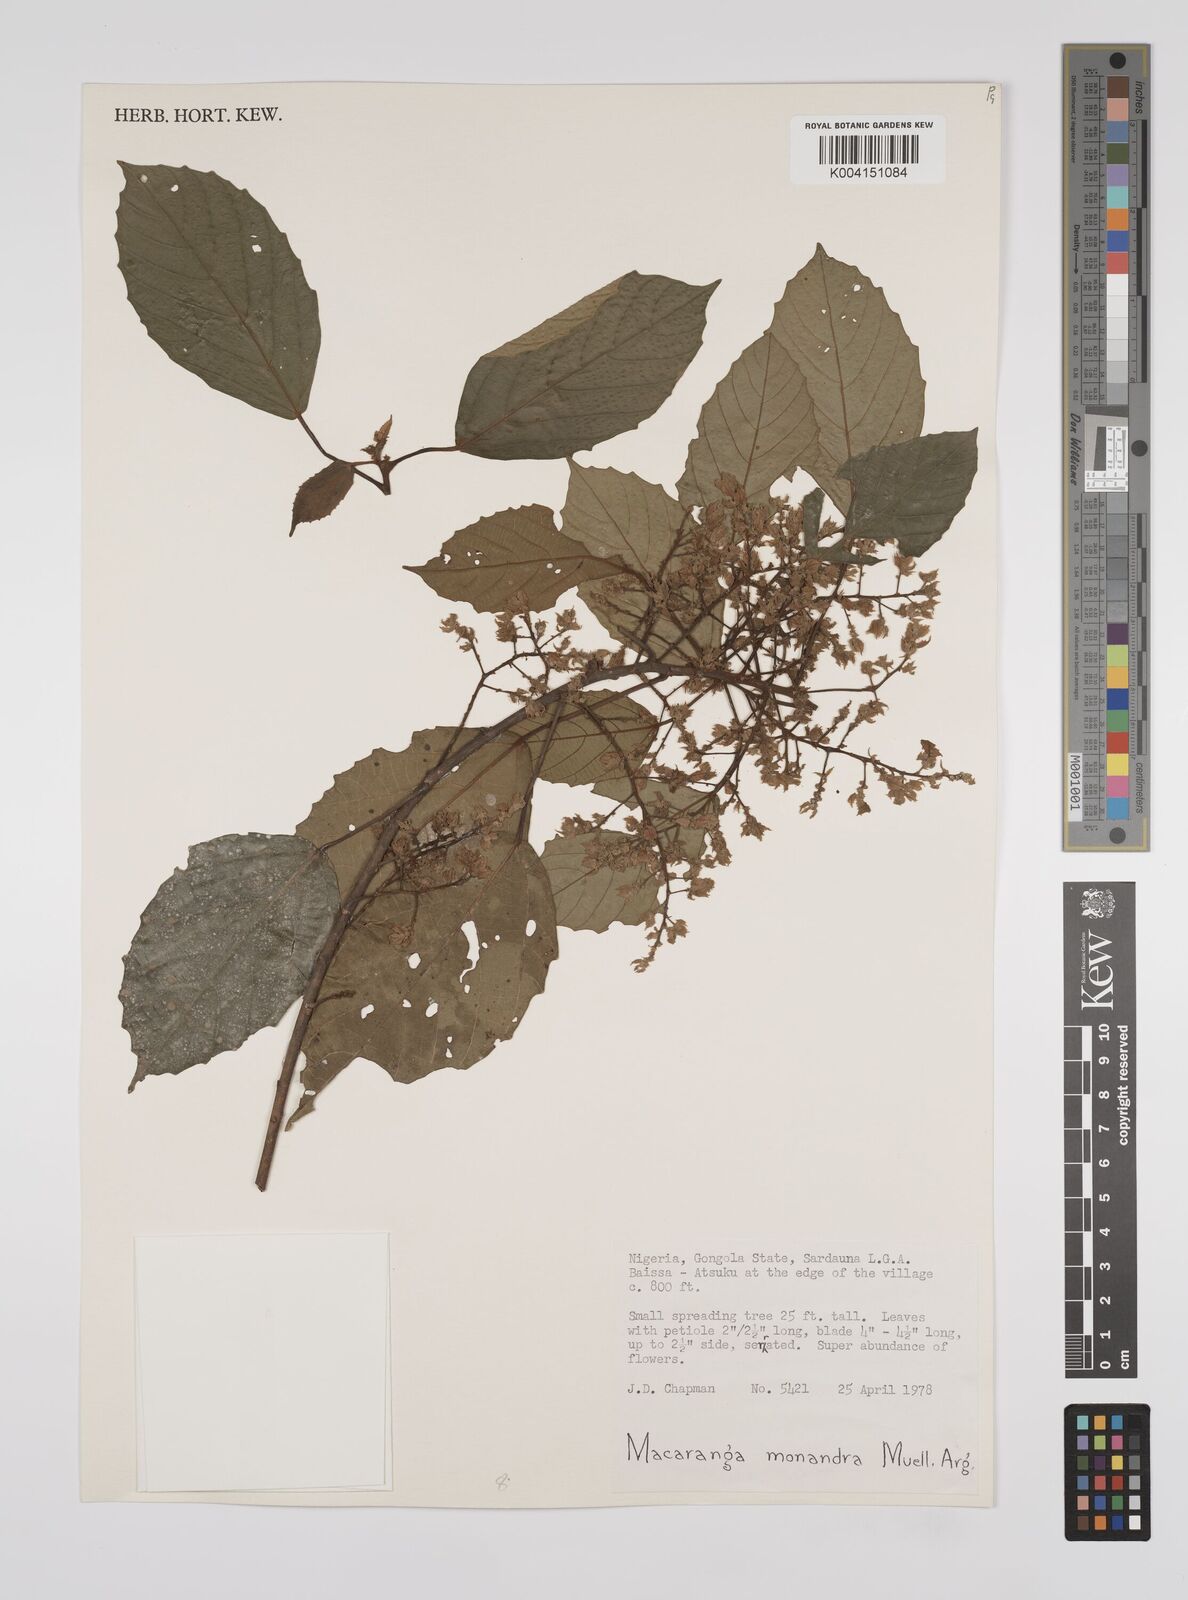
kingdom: Plantae
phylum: Tracheophyta
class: Magnoliopsida
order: Malpighiales
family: Euphorbiaceae
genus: Macaranga
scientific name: Macaranga monandra
